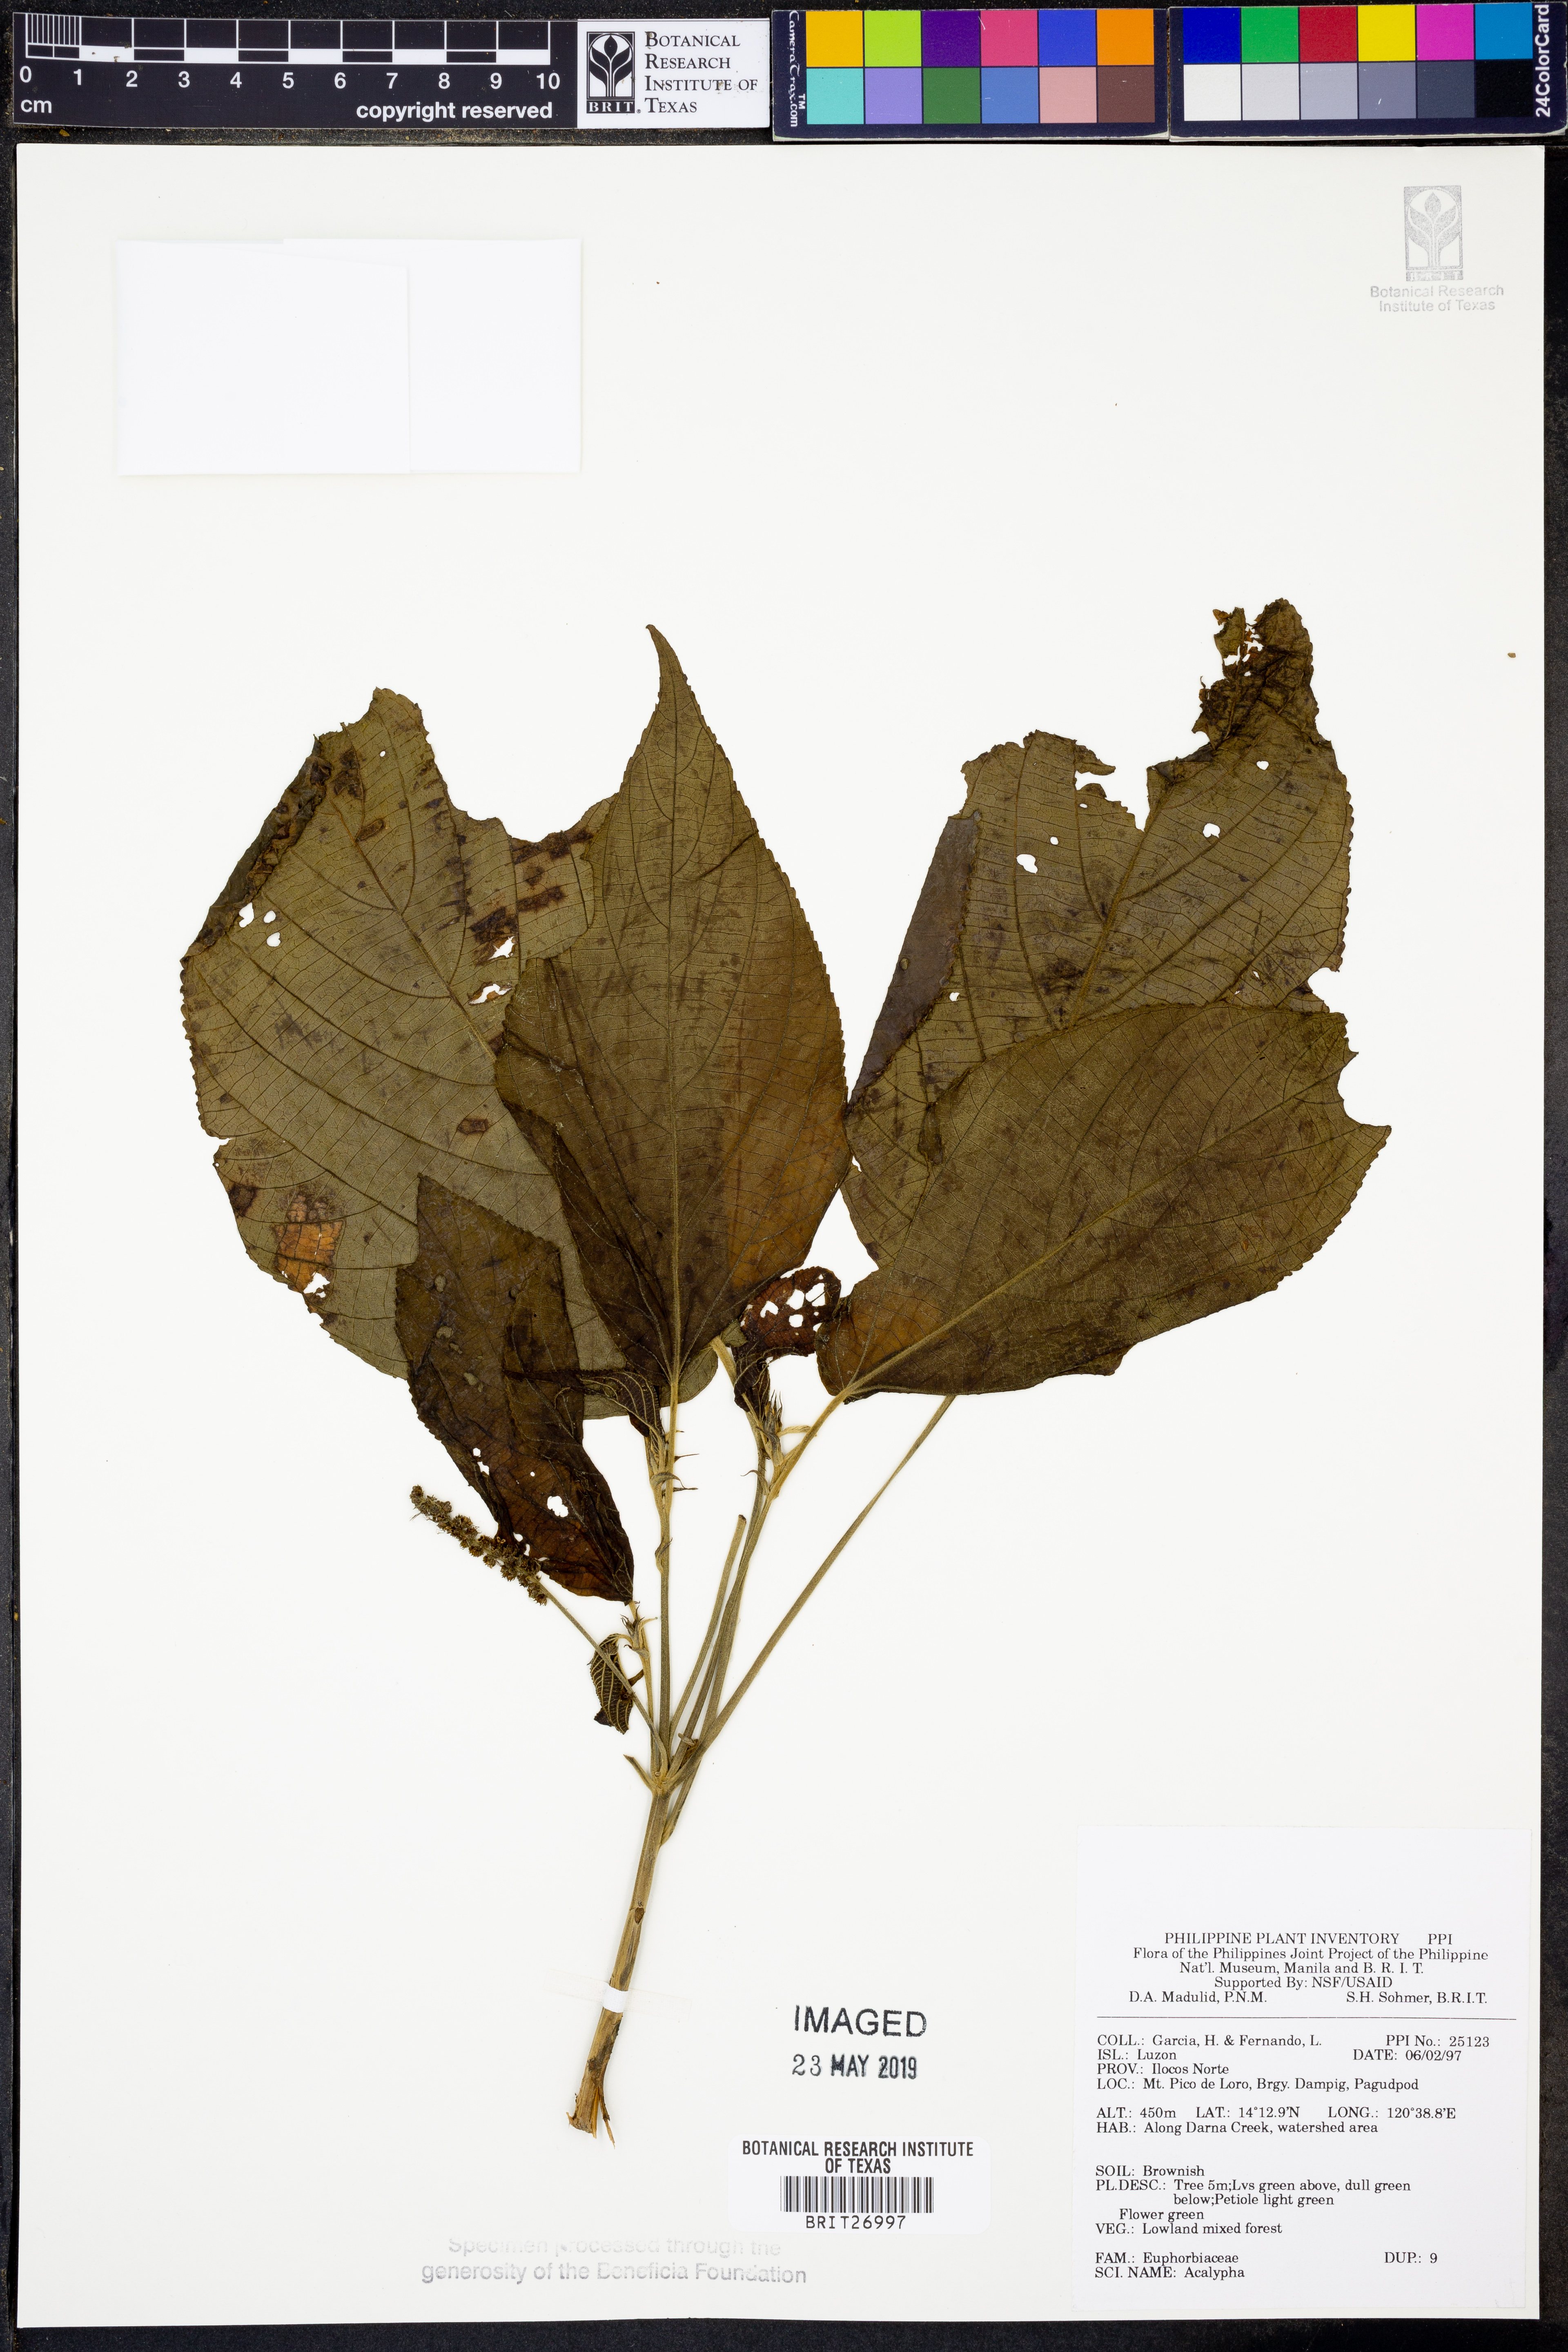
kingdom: Plantae
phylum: Tracheophyta
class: Magnoliopsida
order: Malpighiales
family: Euphorbiaceae
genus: Acalypha
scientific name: Acalypha
